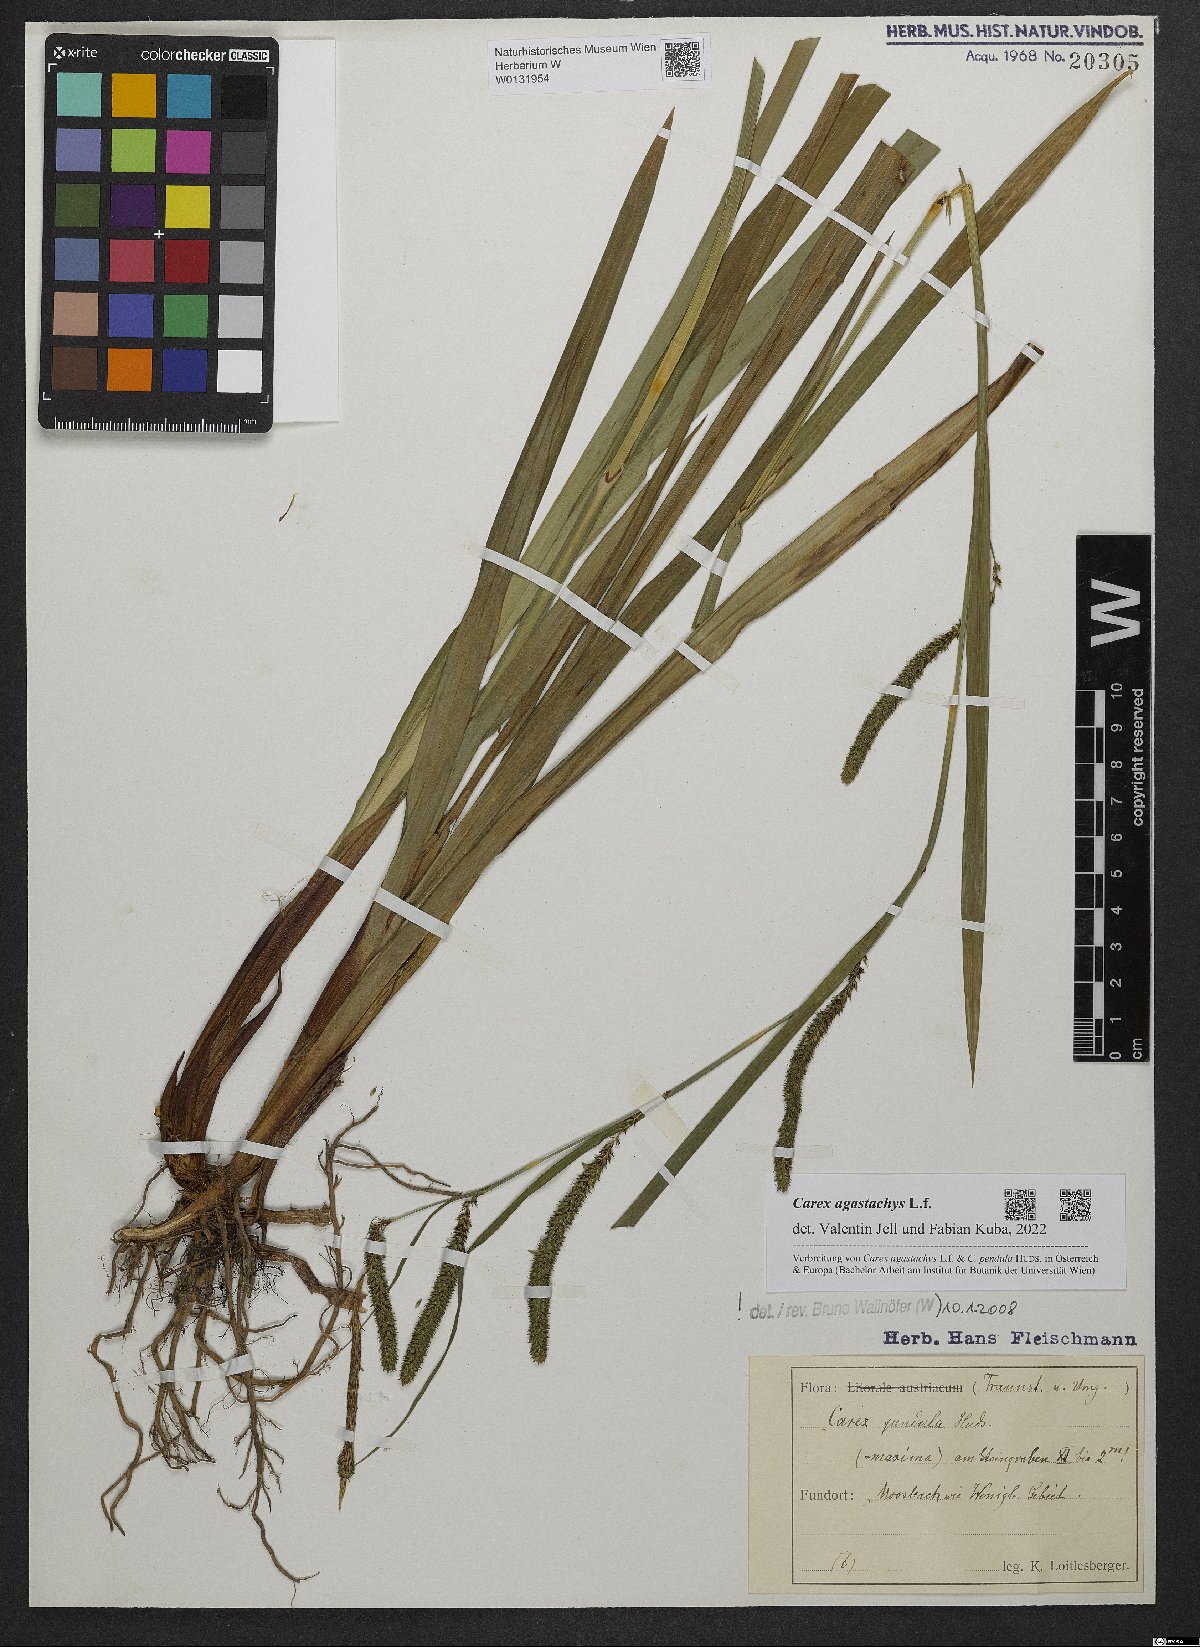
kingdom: Plantae
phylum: Tracheophyta
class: Liliopsida
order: Poales
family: Cyperaceae
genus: Carex
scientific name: Carex agastachys
